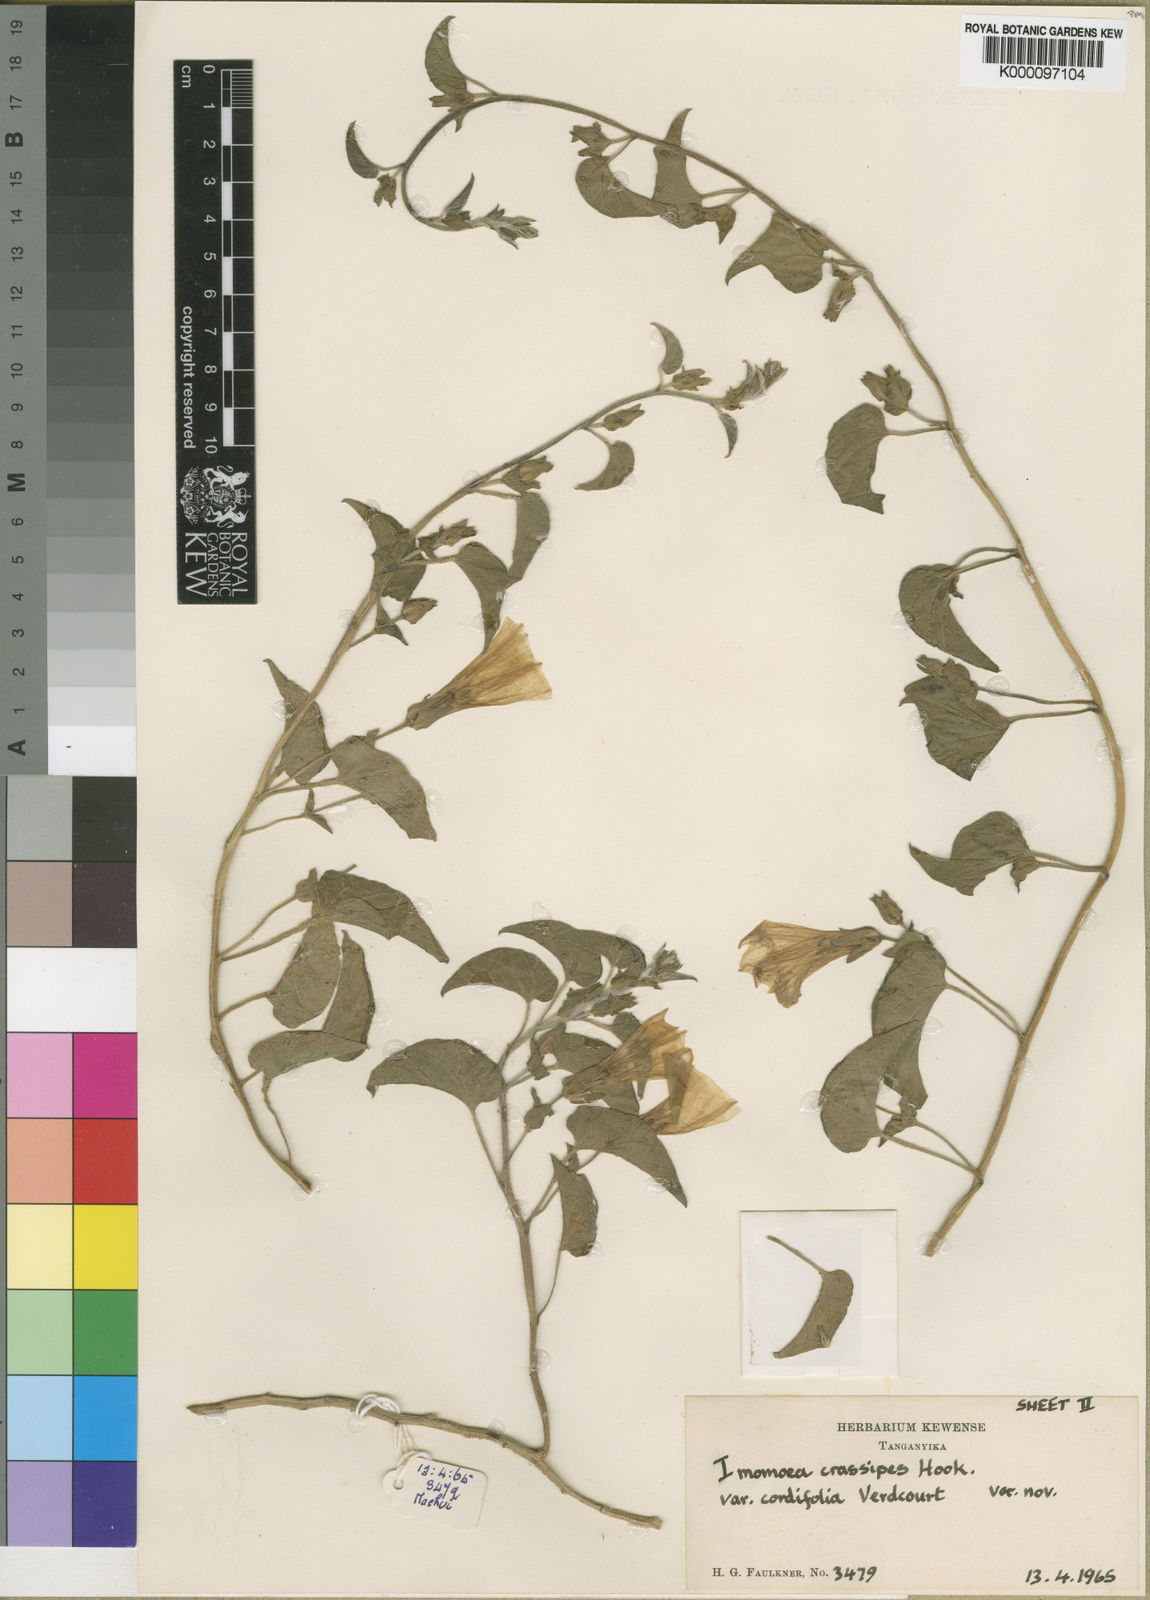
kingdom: Plantae
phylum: Tracheophyta
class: Magnoliopsida
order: Solanales
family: Convolvulaceae
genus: Ipomoea
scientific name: Ipomoea crassipes
